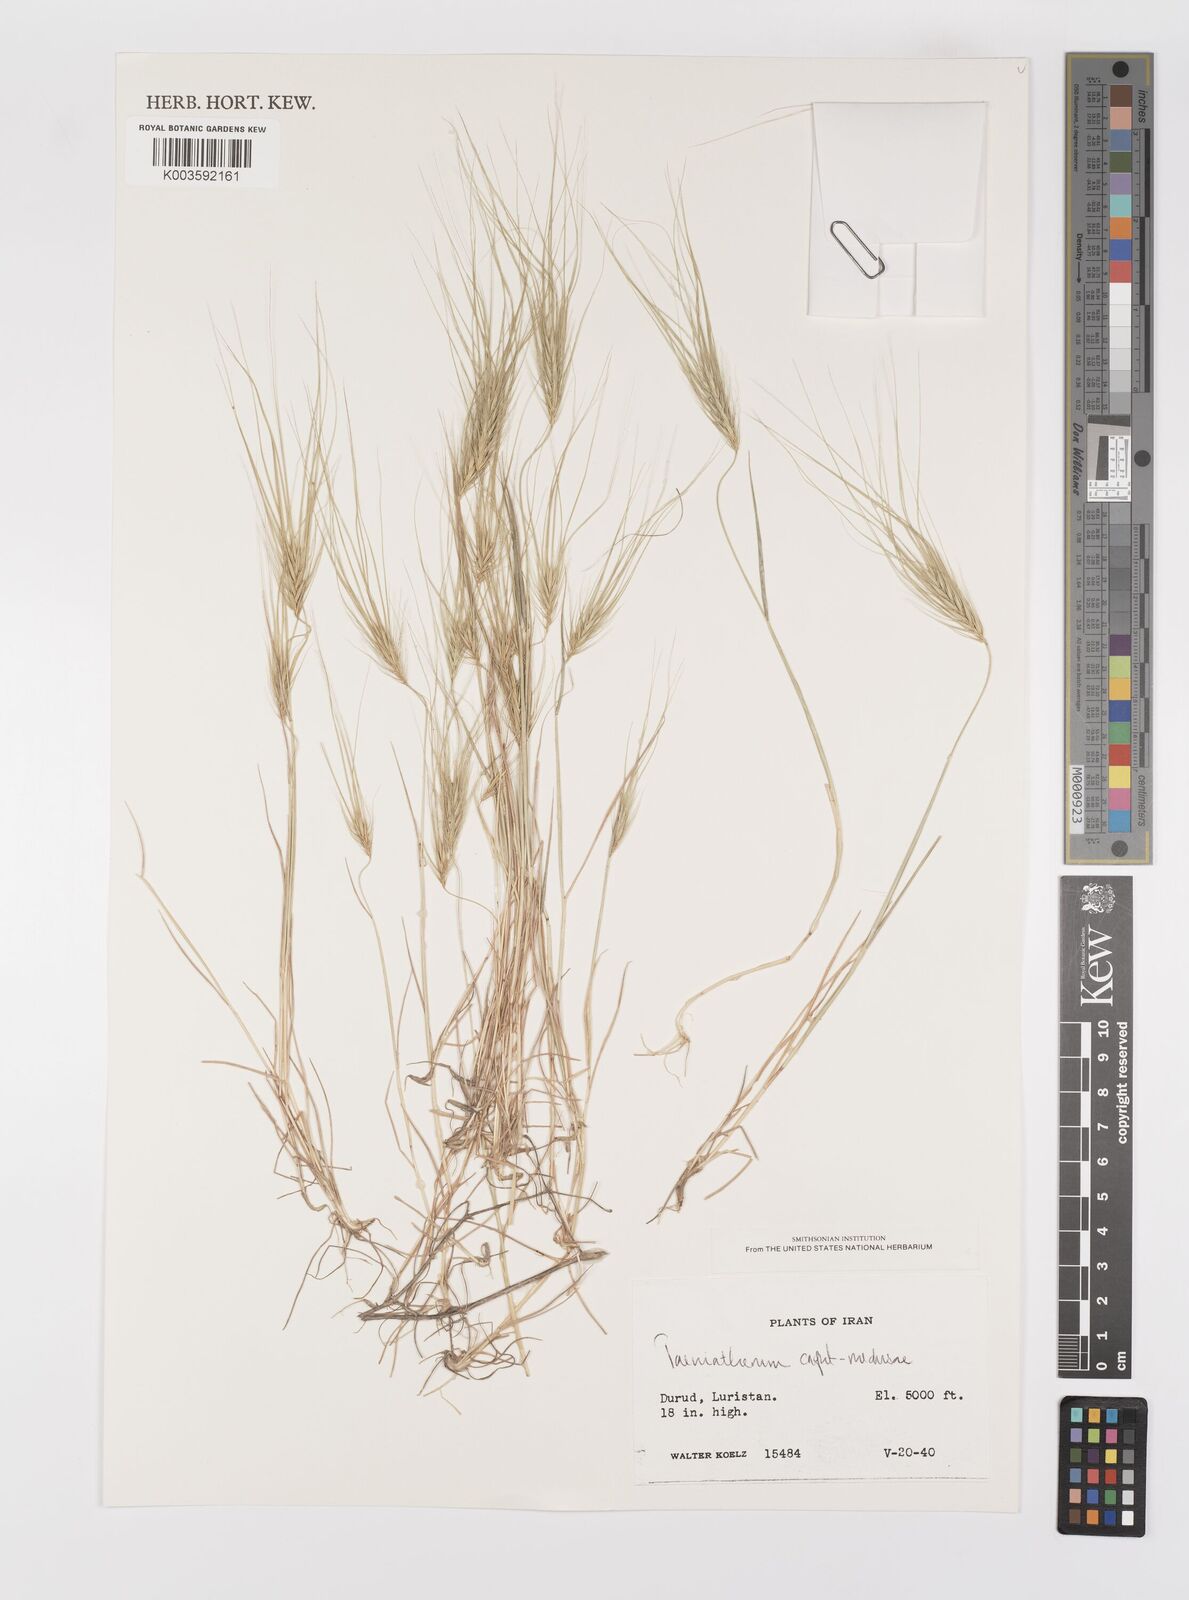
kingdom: Plantae
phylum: Tracheophyta
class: Liliopsida
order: Poales
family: Poaceae
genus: Taeniatherum
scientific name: Taeniatherum caput-medusae
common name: Medusahead
